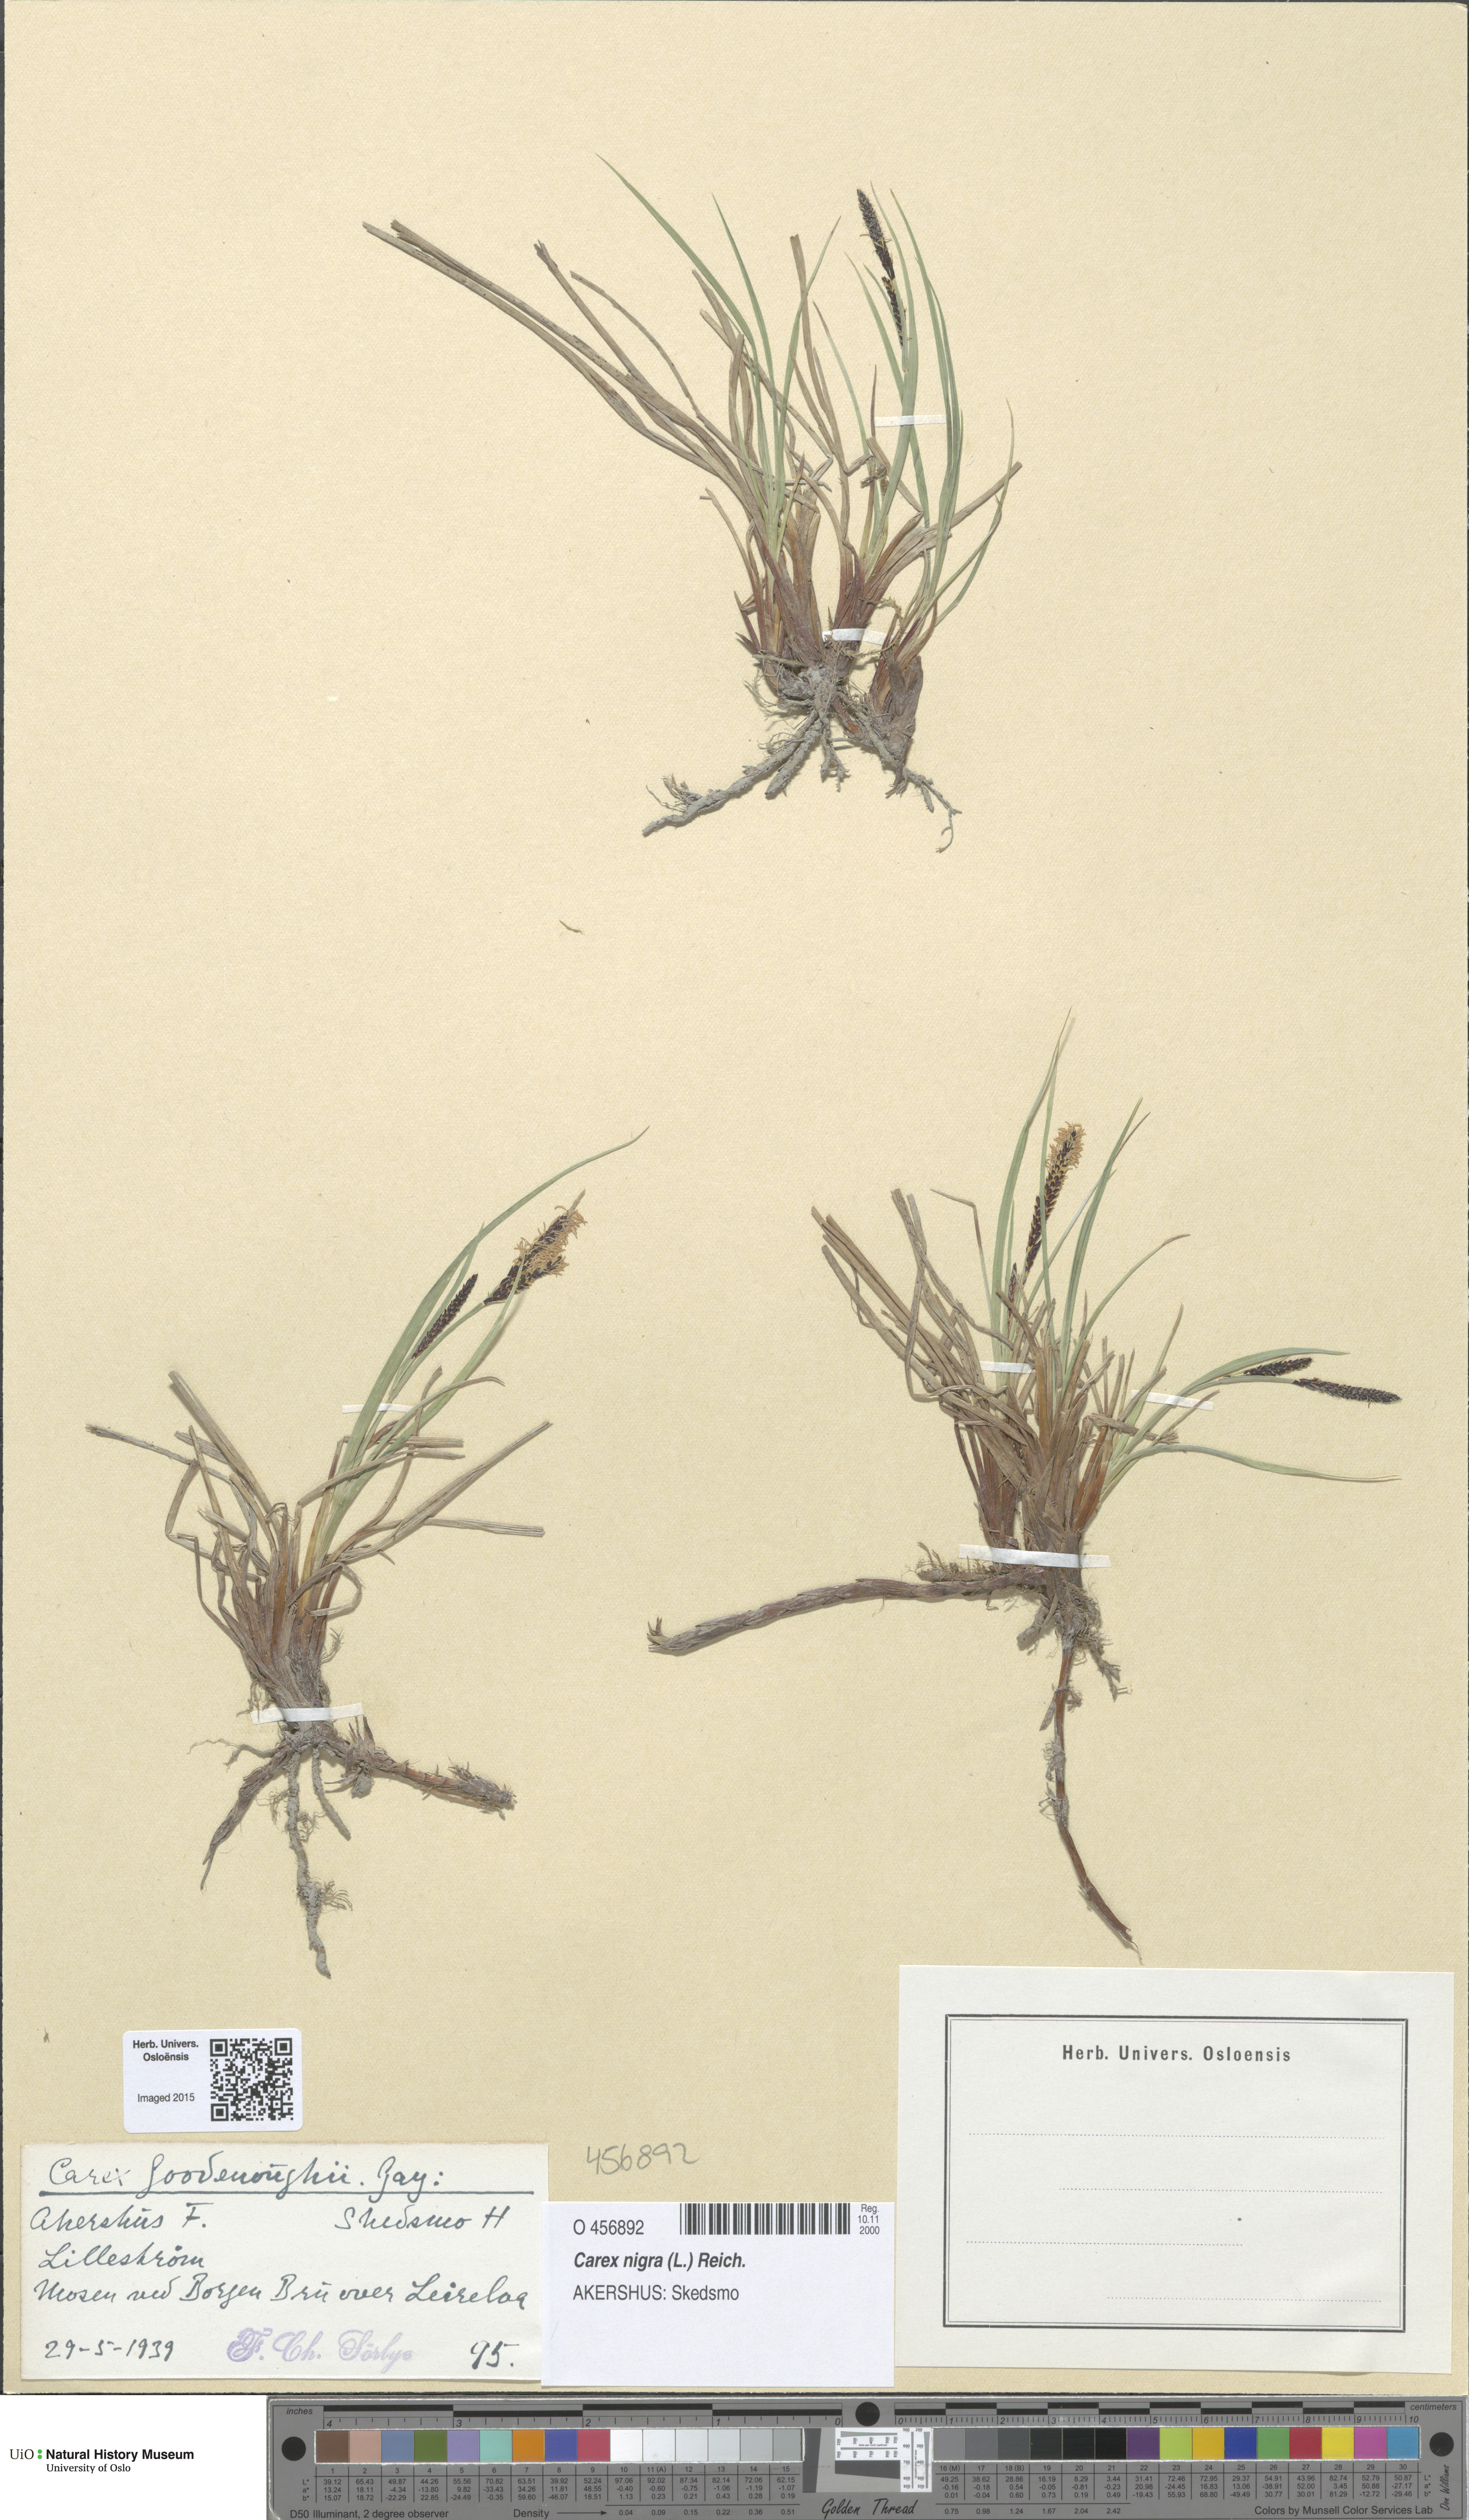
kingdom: Plantae
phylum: Tracheophyta
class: Liliopsida
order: Poales
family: Cyperaceae
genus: Carex
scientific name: Carex nigra
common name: Common sedge
